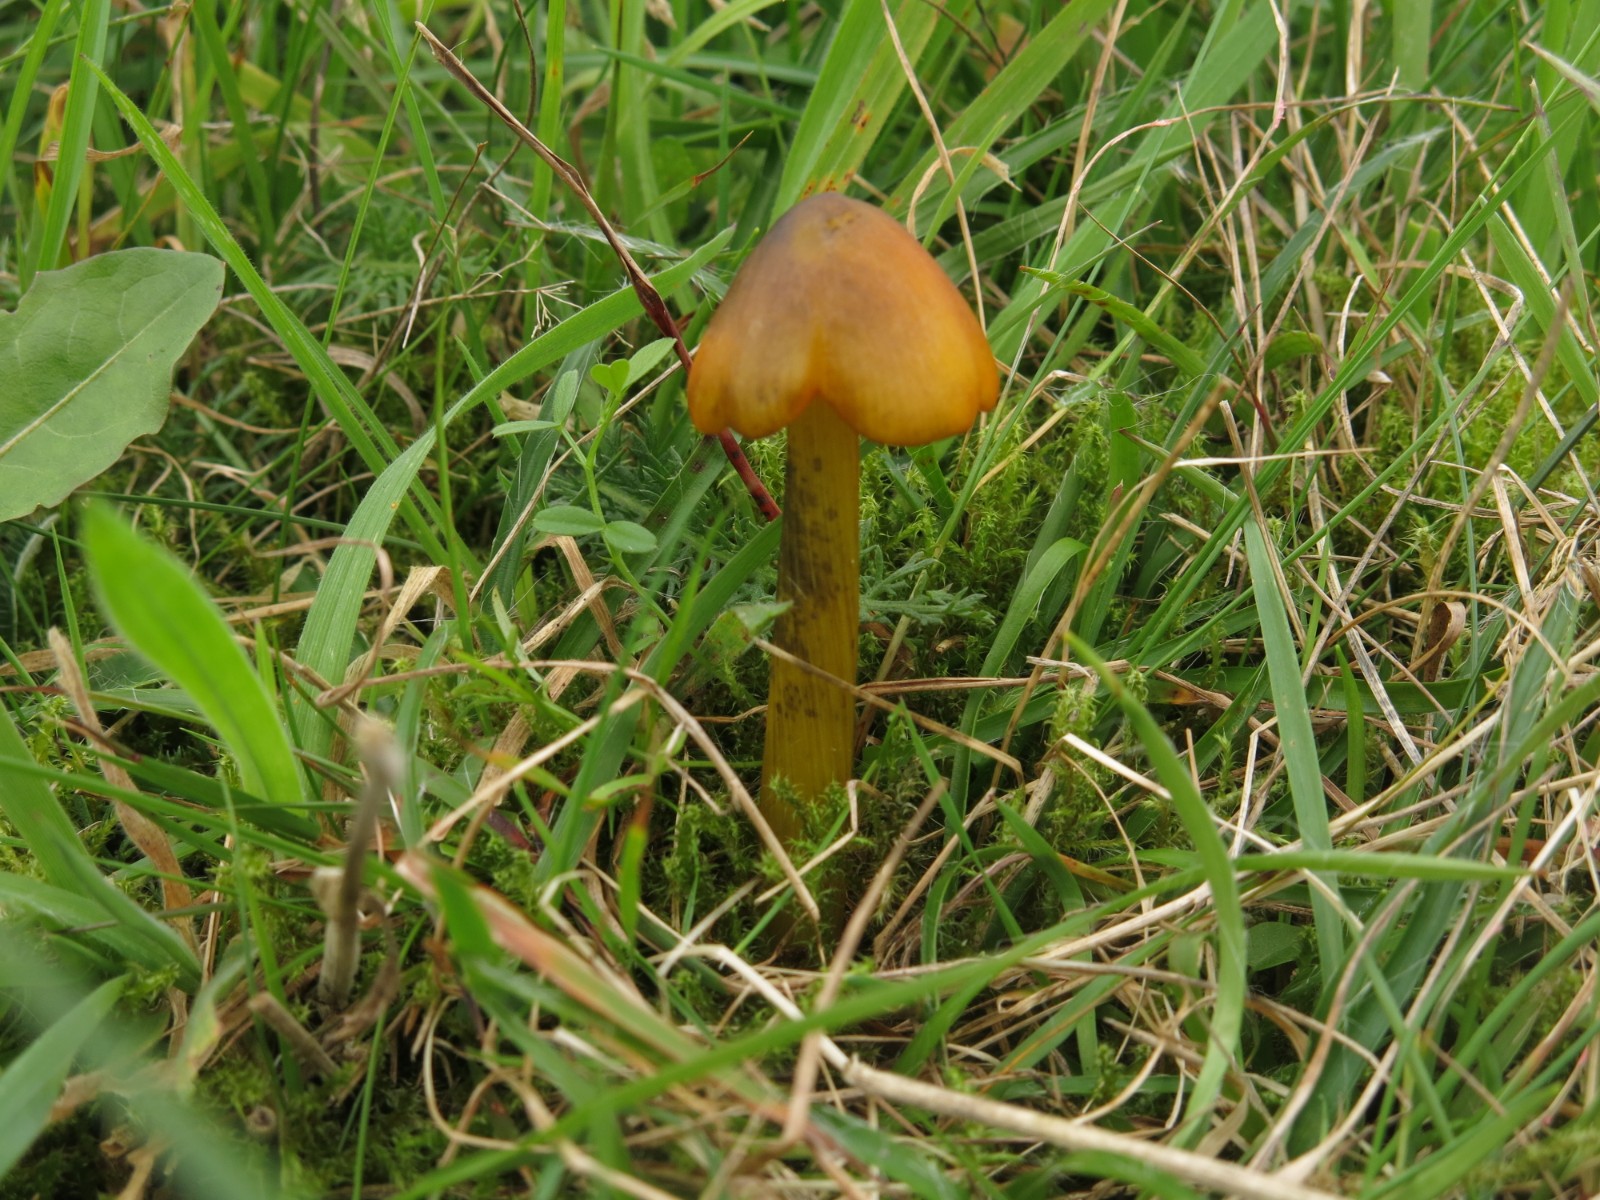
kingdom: Fungi
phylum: Basidiomycota
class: Agaricomycetes
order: Agaricales
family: Hygrophoraceae
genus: Hygrocybe
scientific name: Hygrocybe conica
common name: kegle-vokshat
